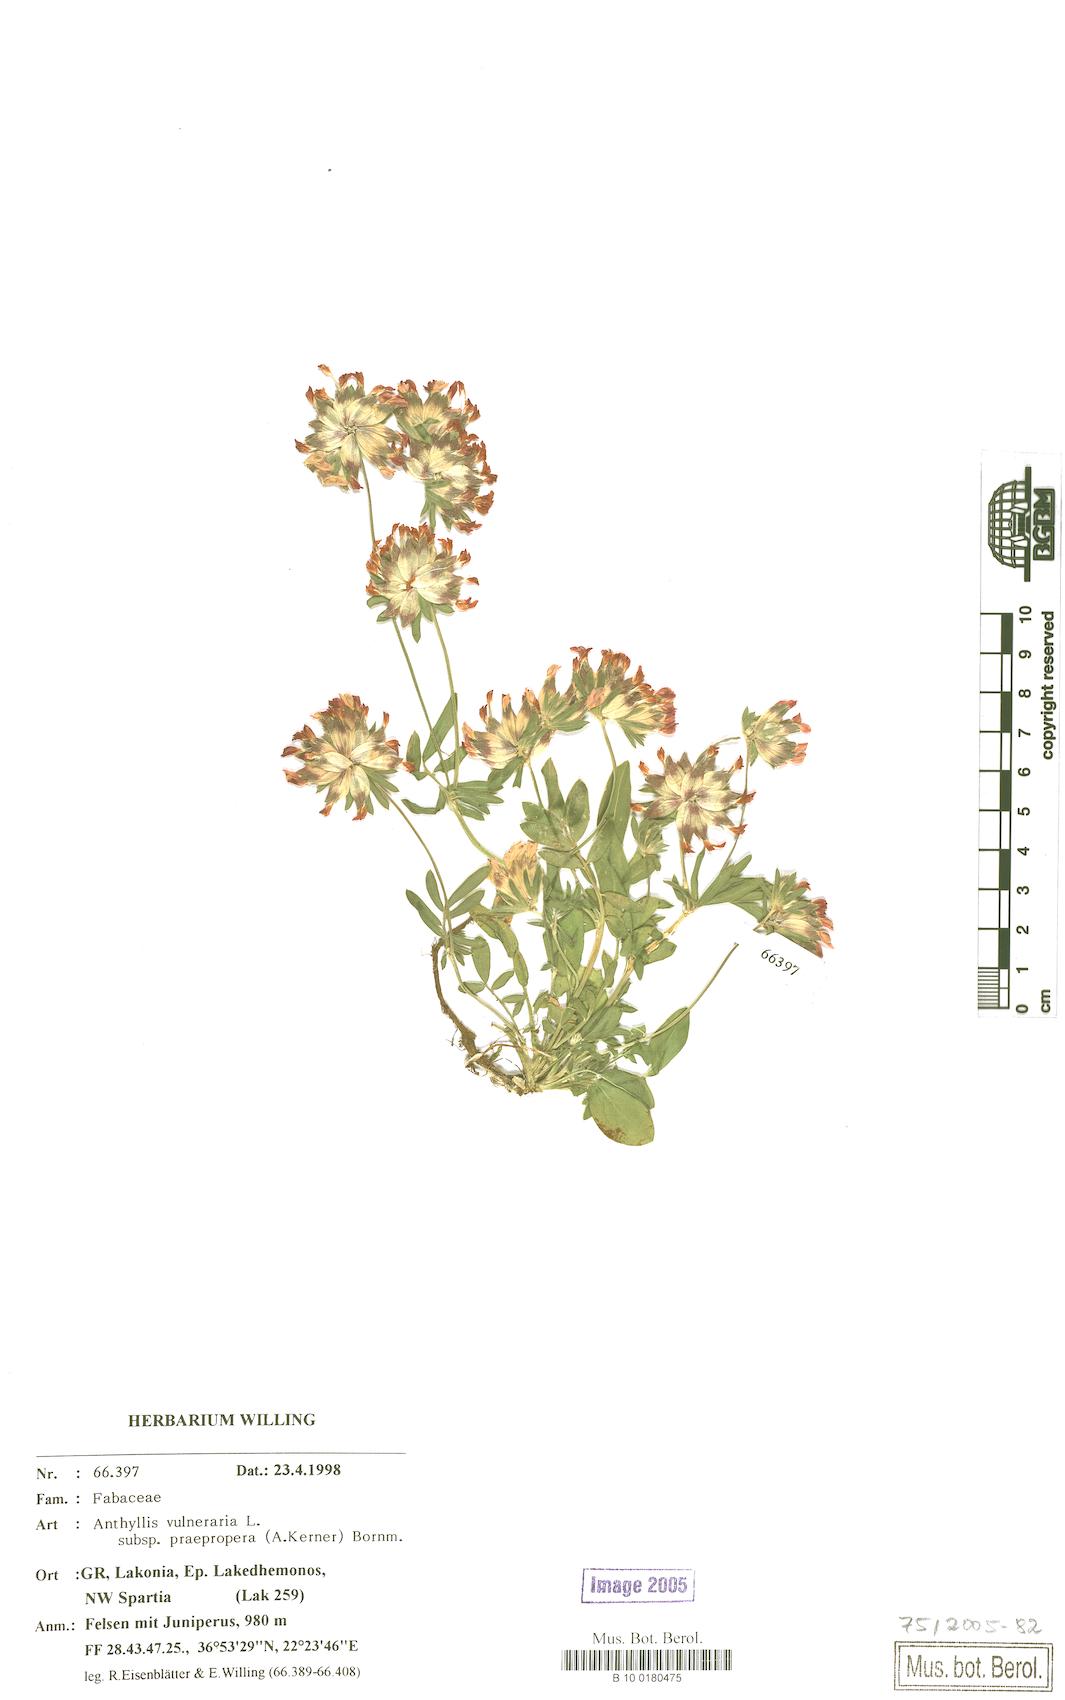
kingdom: Plantae
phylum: Tracheophyta
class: Magnoliopsida
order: Fabales
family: Fabaceae
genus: Anthyllis
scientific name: Anthyllis vulneraria
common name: Kidney vetch
